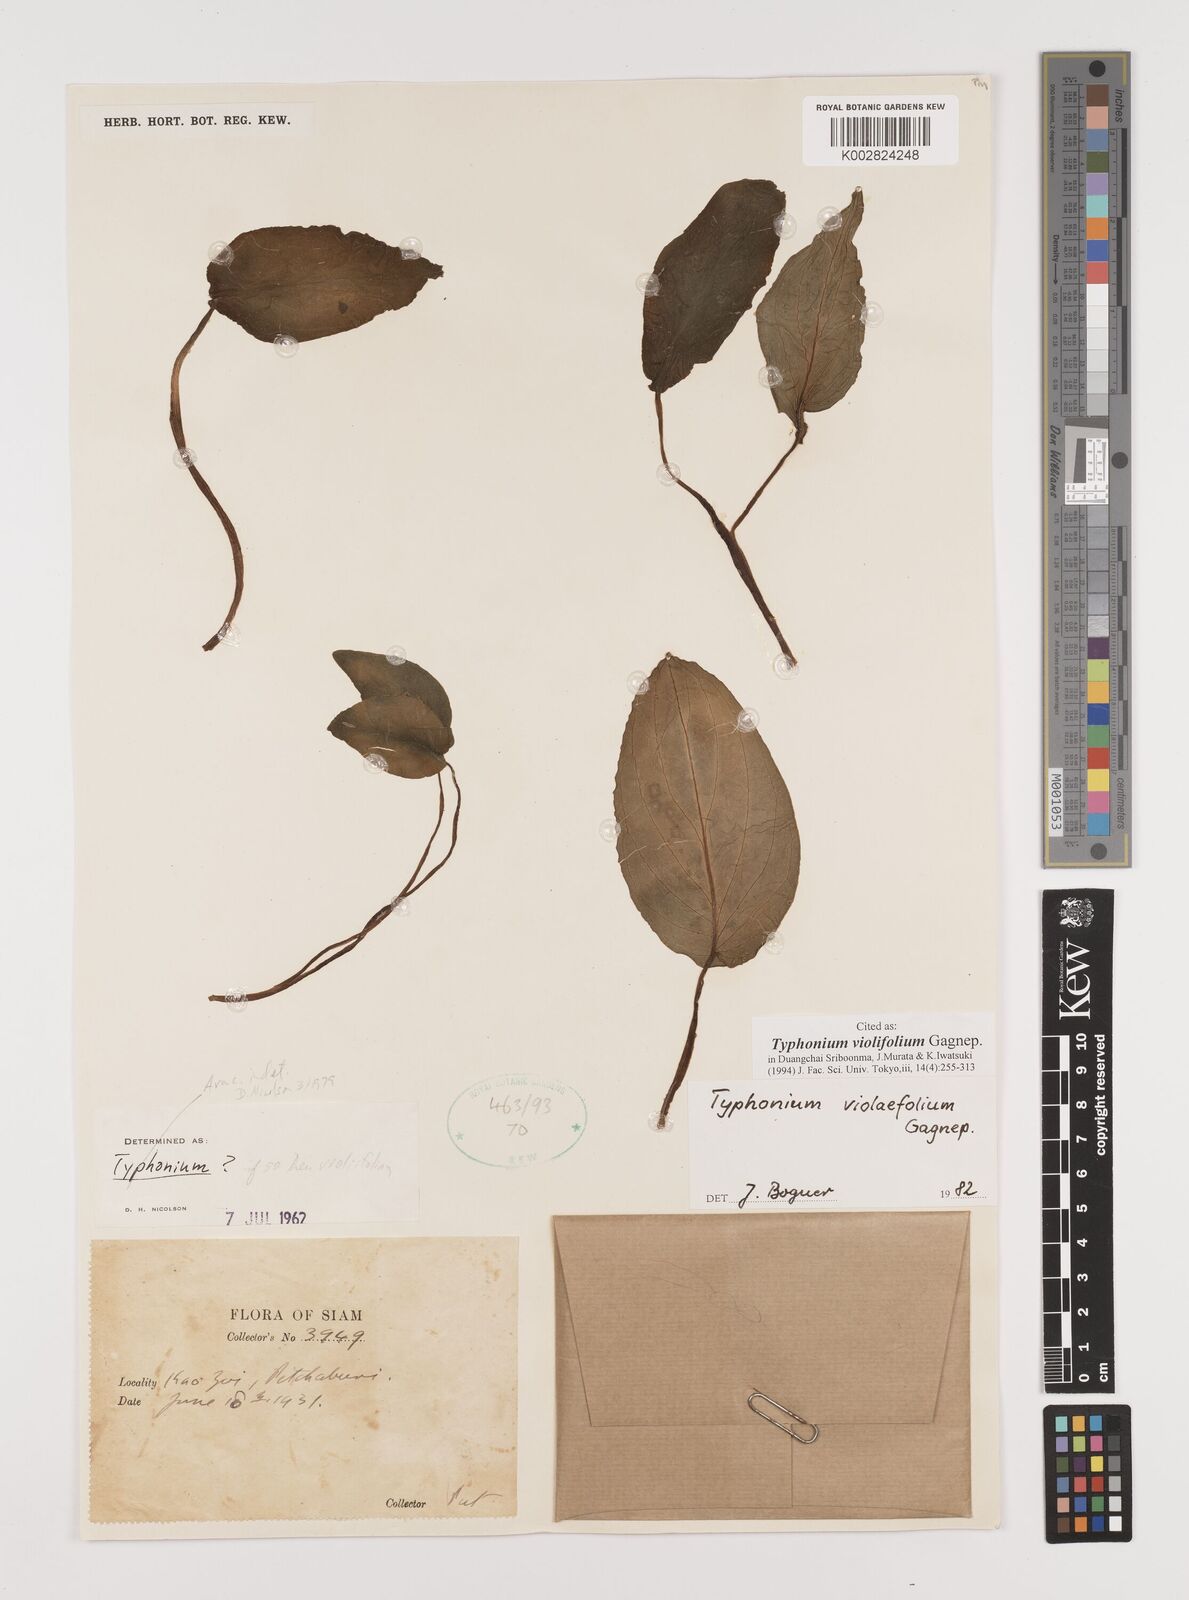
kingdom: Plantae
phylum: Tracheophyta
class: Liliopsida
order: Alismatales
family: Araceae
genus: Typhonium
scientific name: Typhonium violifolium
